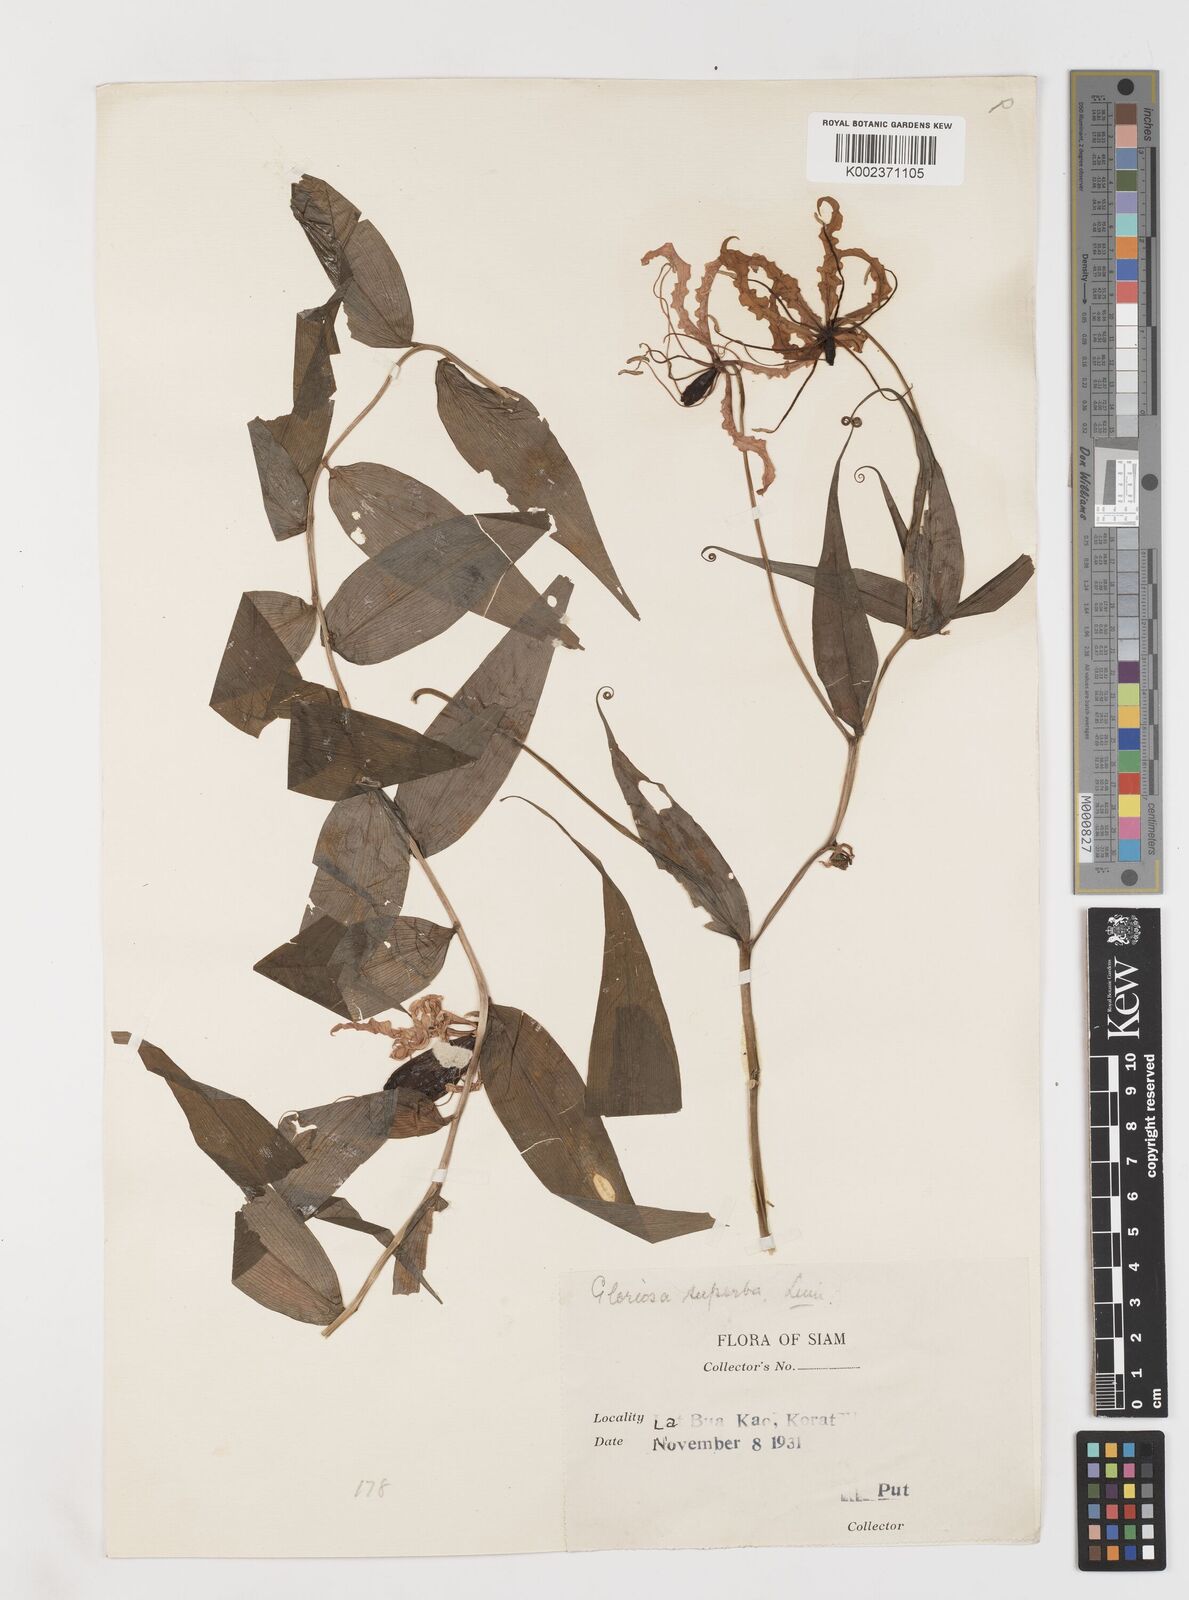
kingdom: Plantae
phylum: Tracheophyta
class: Liliopsida
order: Liliales
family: Colchicaceae
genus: Gloriosa
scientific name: Gloriosa superba
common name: Flame lily
